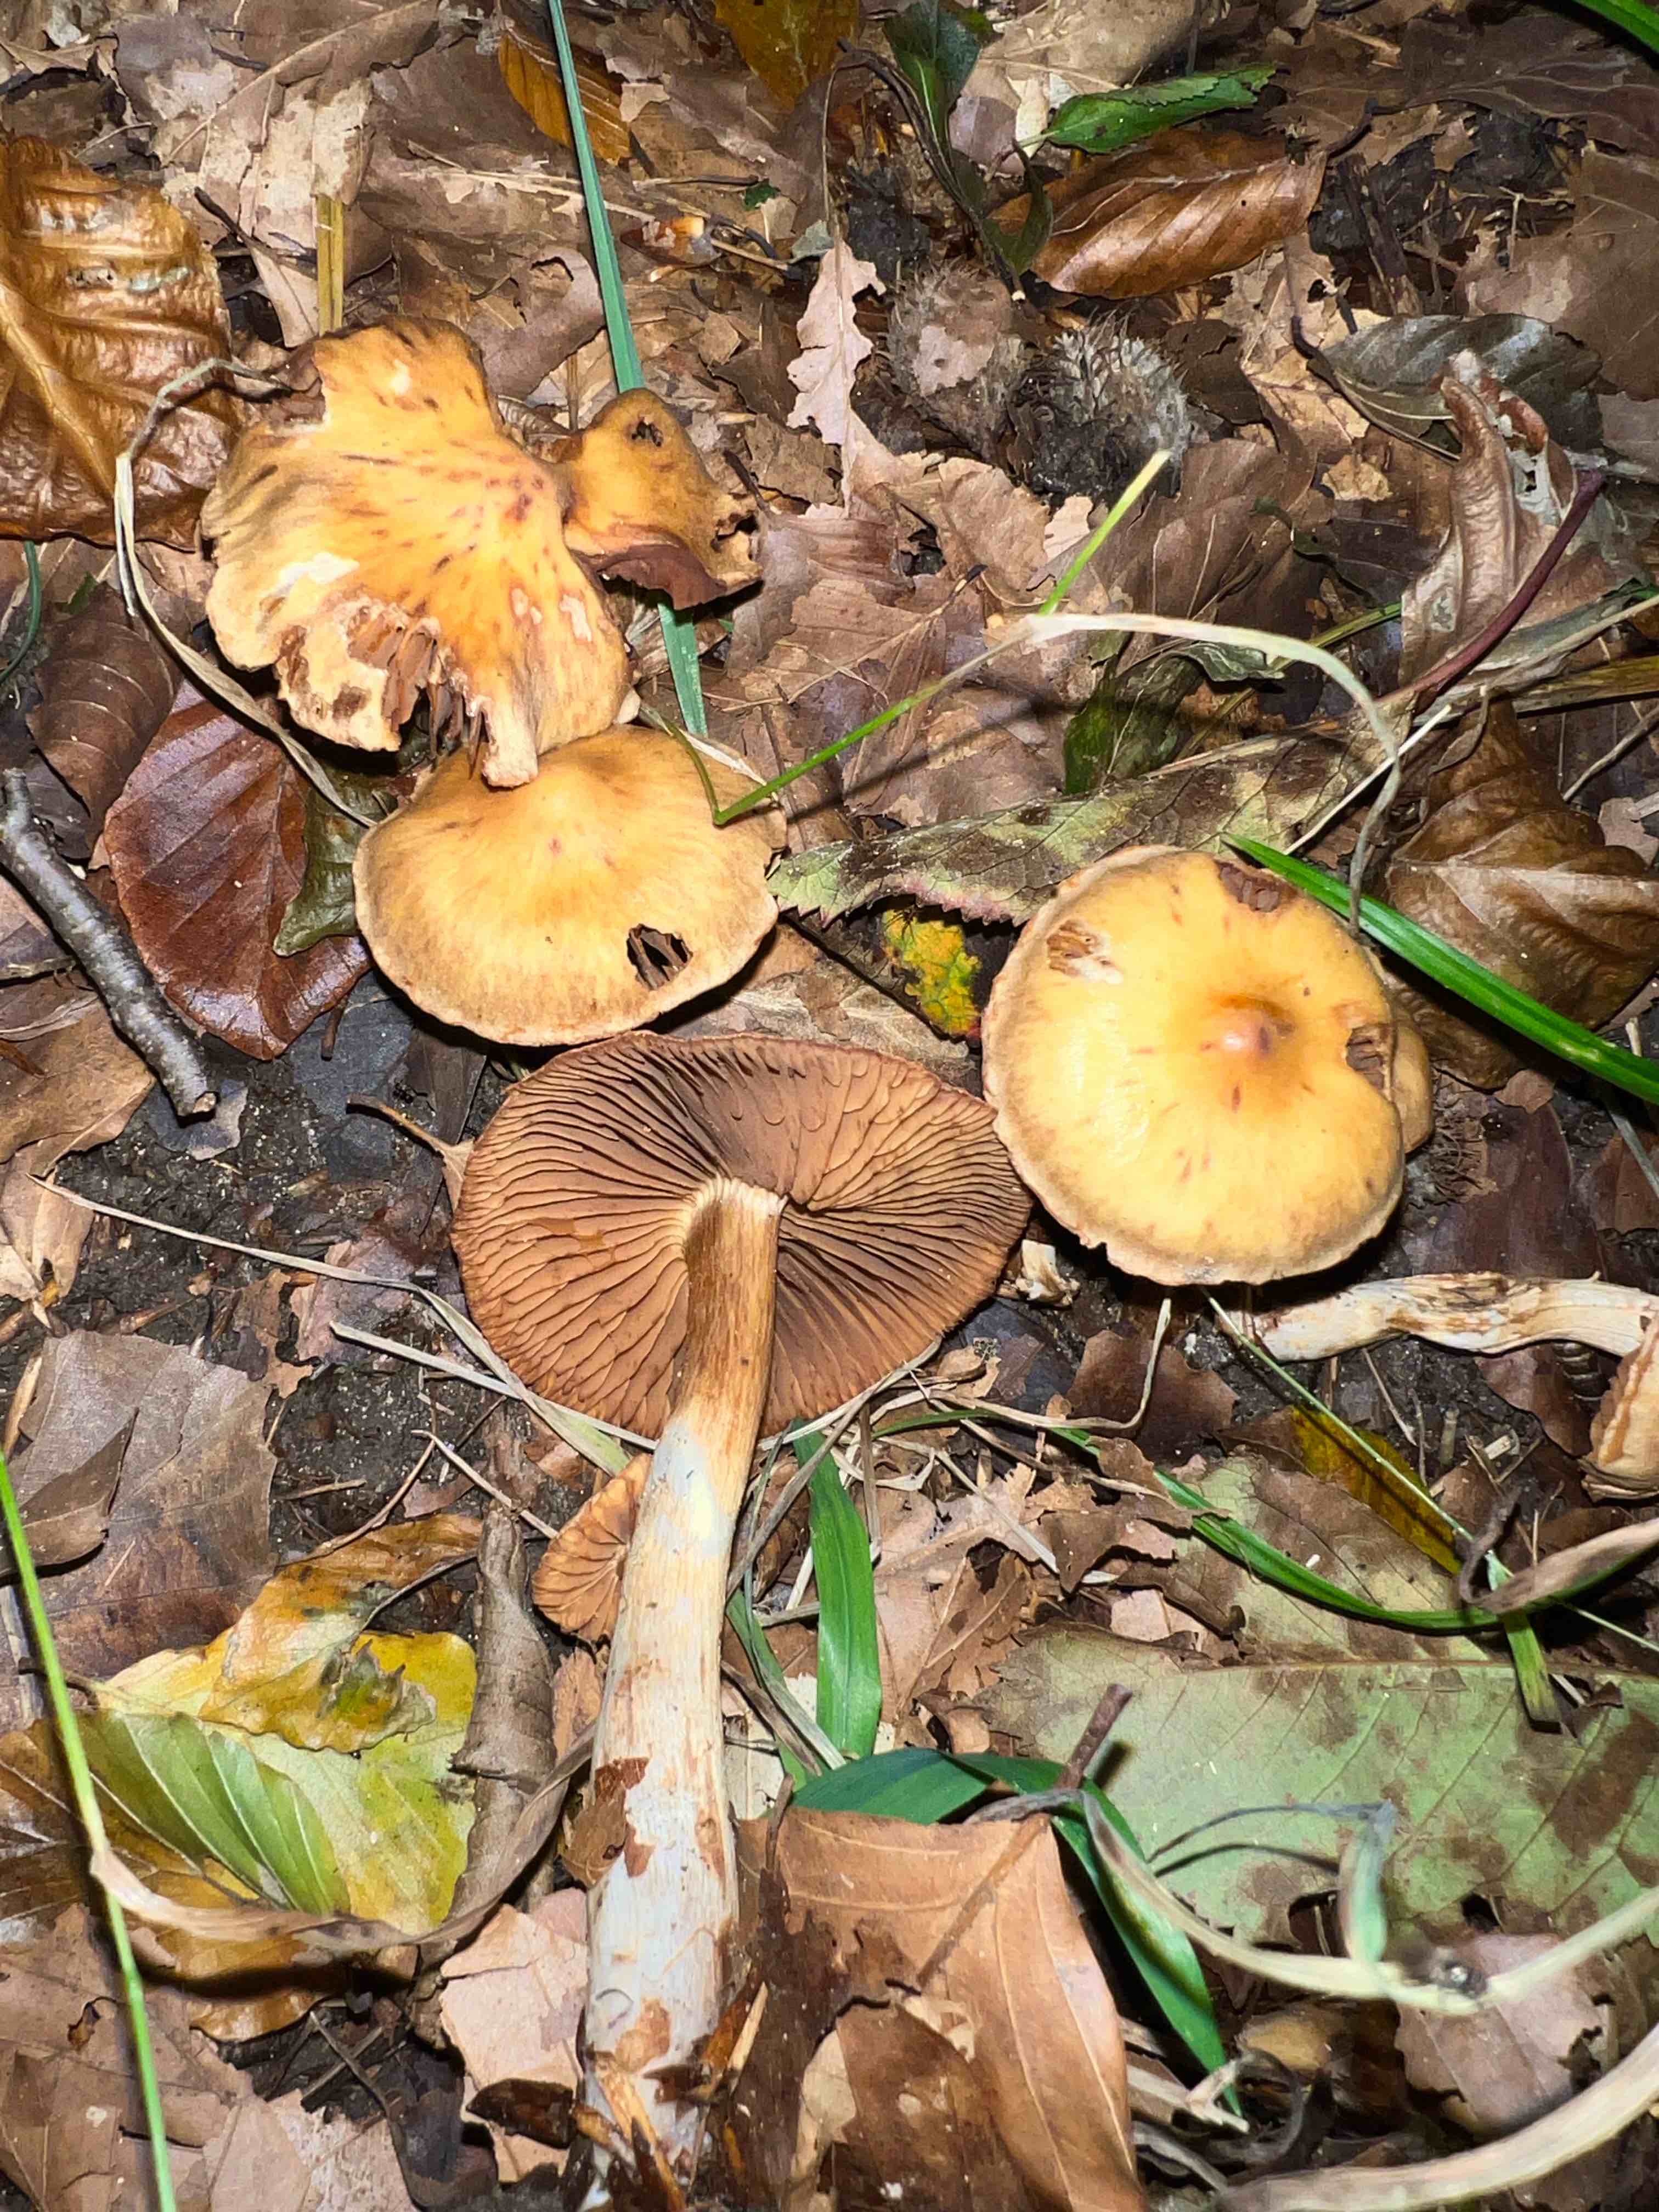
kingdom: Fungi
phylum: Basidiomycota
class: Agaricomycetes
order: Agaricales
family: Cortinariaceae
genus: Cortinarius
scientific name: Cortinarius hinnuleus
